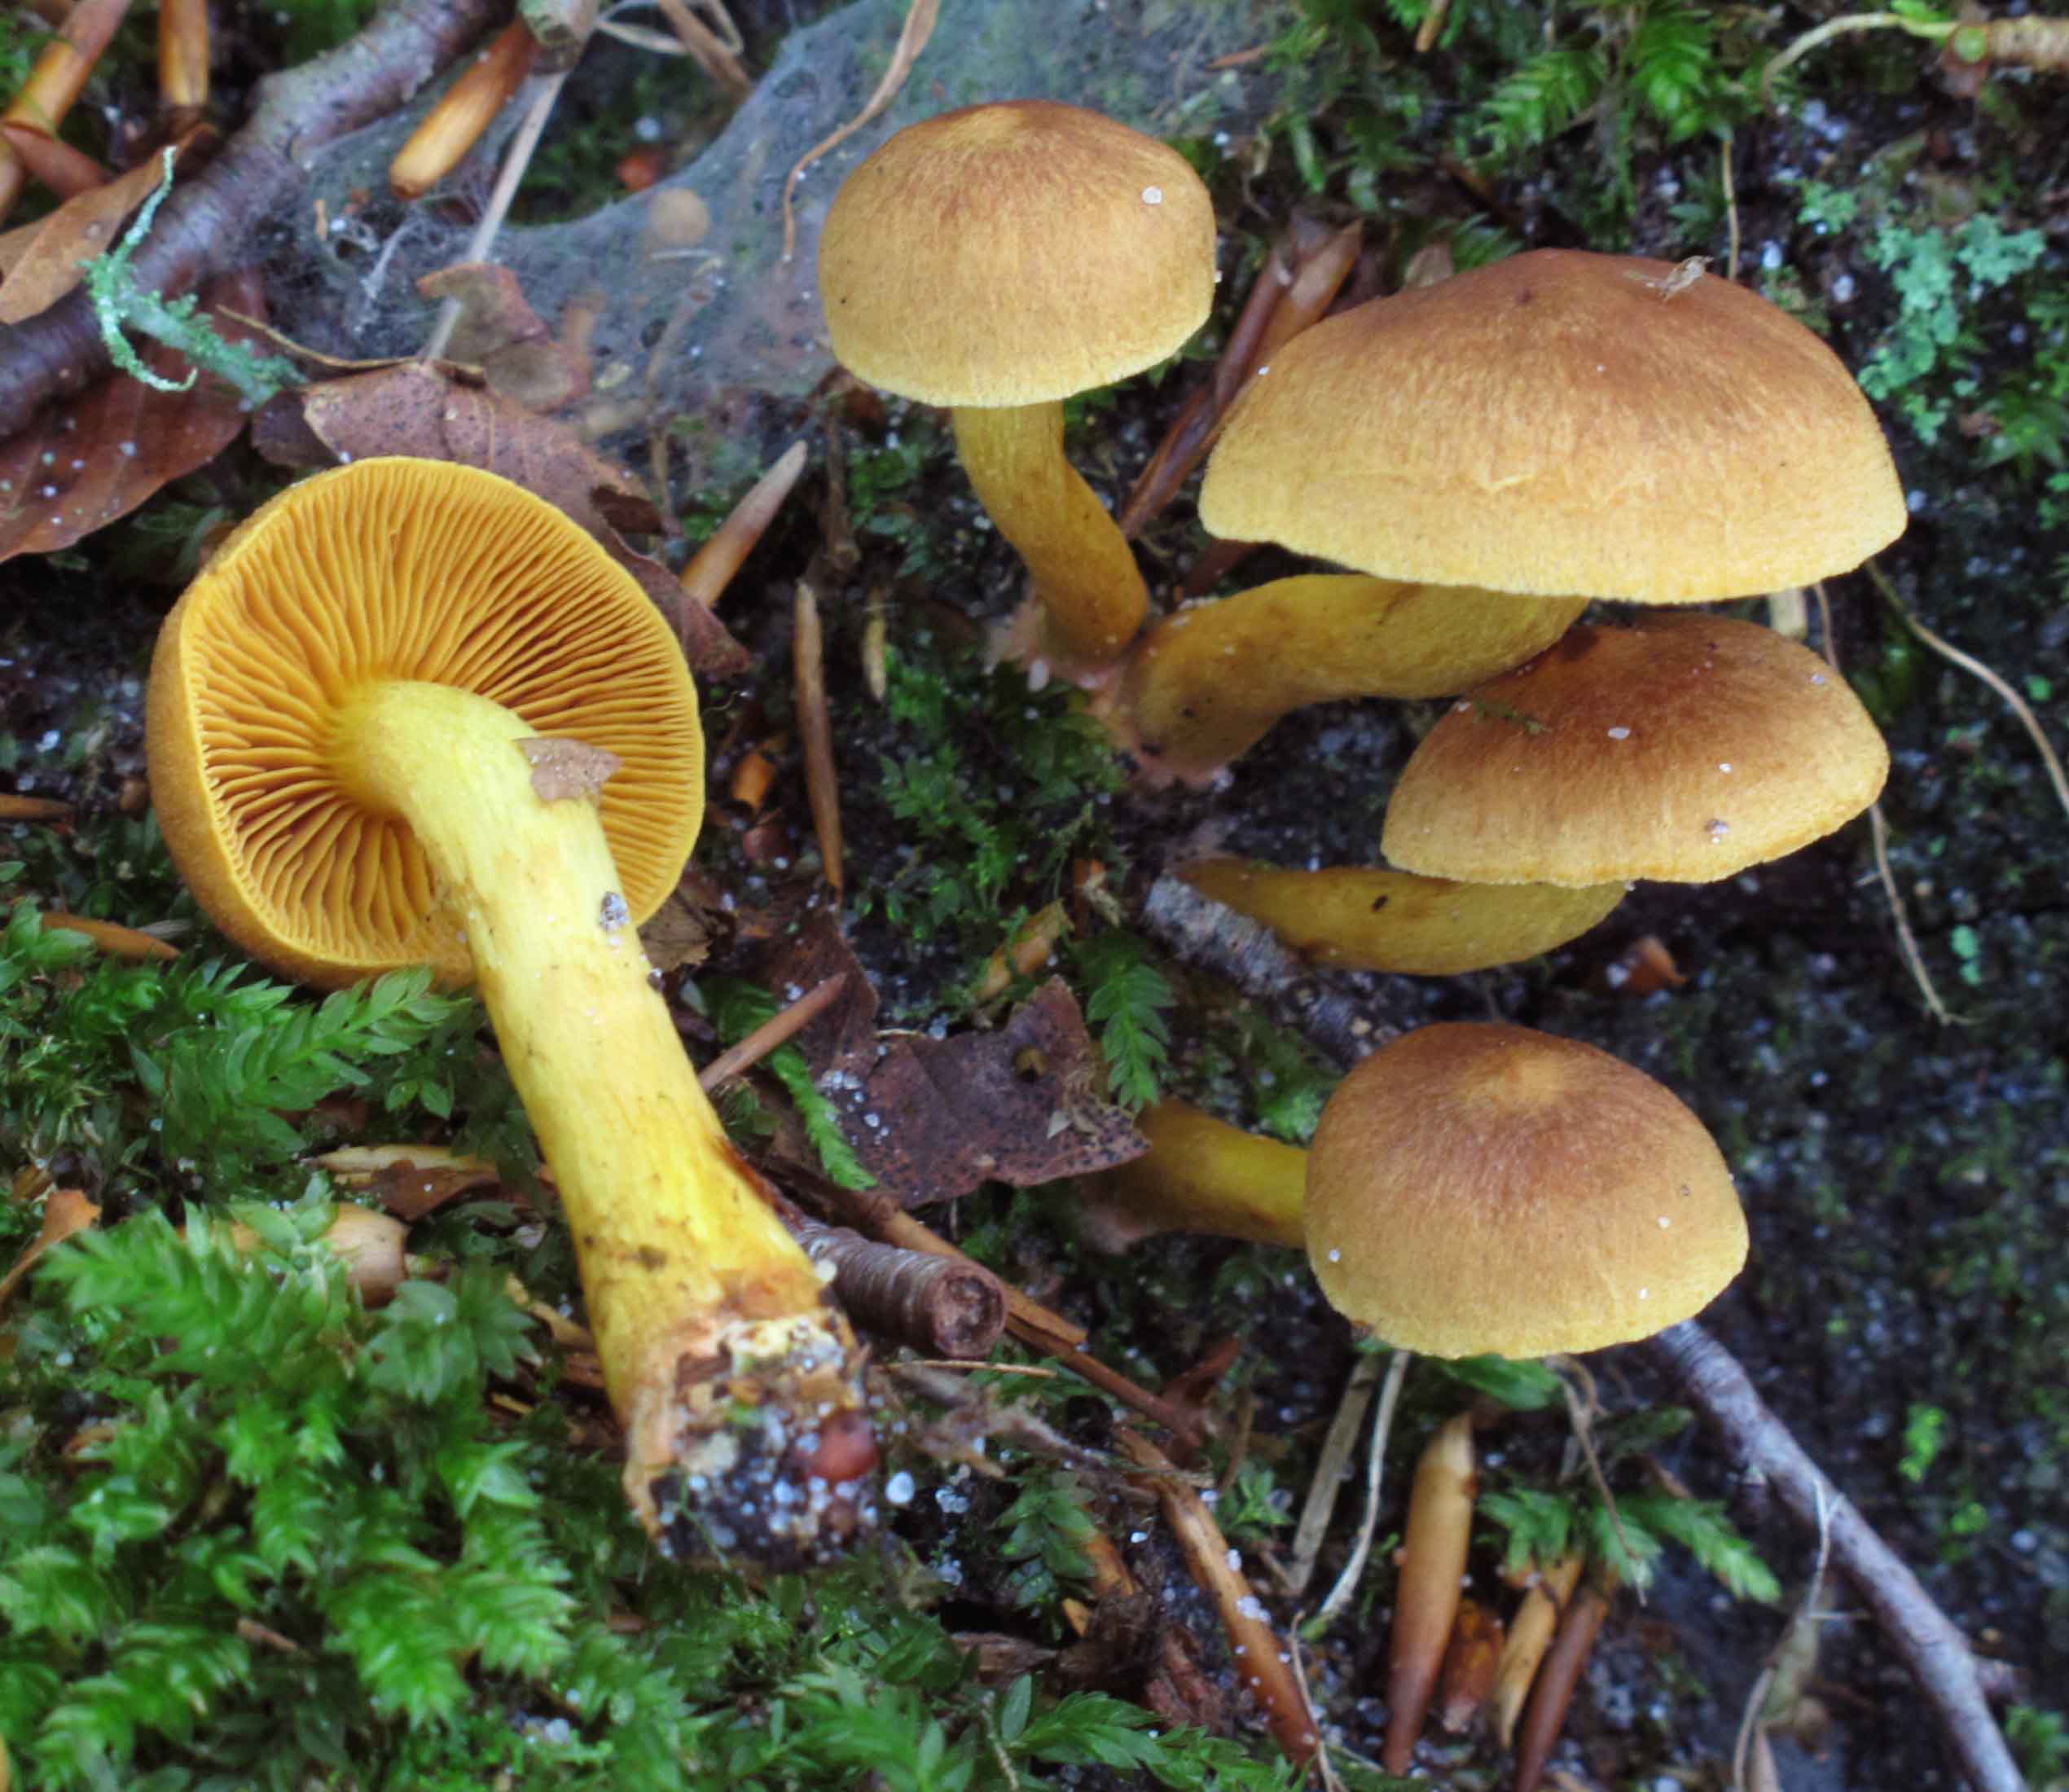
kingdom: Fungi
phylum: Basidiomycota
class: Agaricomycetes
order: Agaricales
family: Cortinariaceae
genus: Cortinarius
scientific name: Cortinarius
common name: gulbladet slørhat
